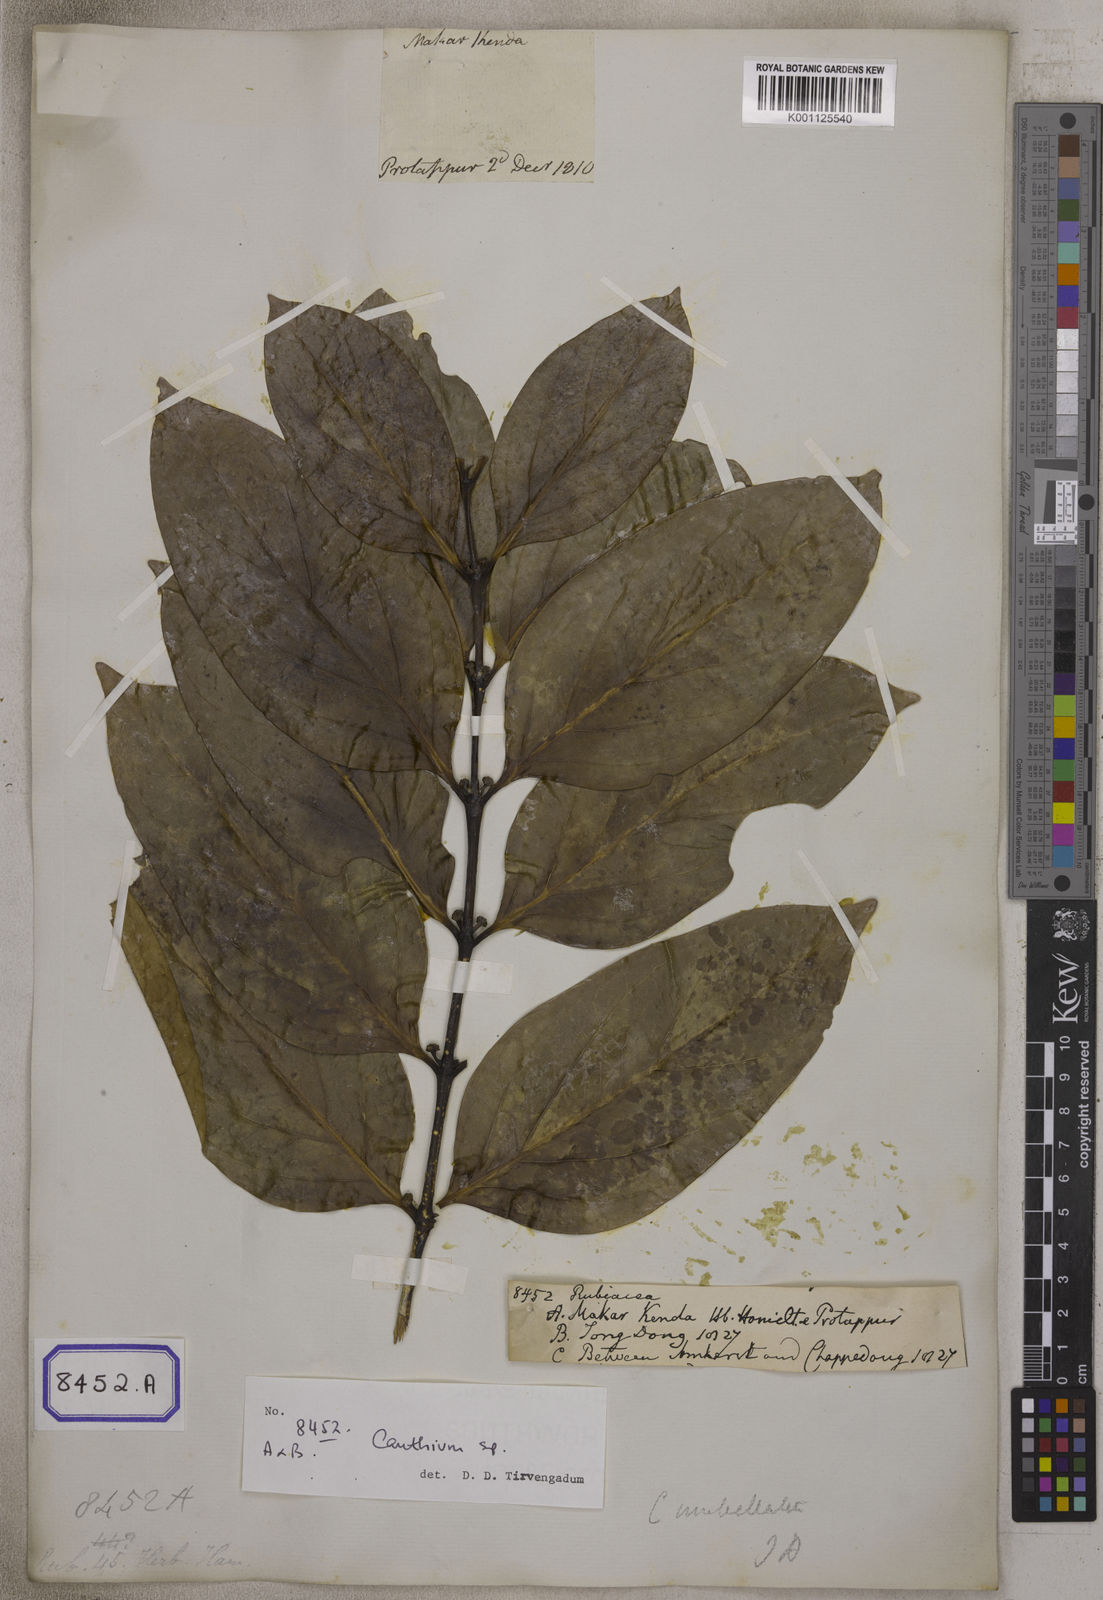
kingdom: Plantae
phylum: Tracheophyta
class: Magnoliopsida
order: Gentianales
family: Rubiaceae
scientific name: Rubiaceae
